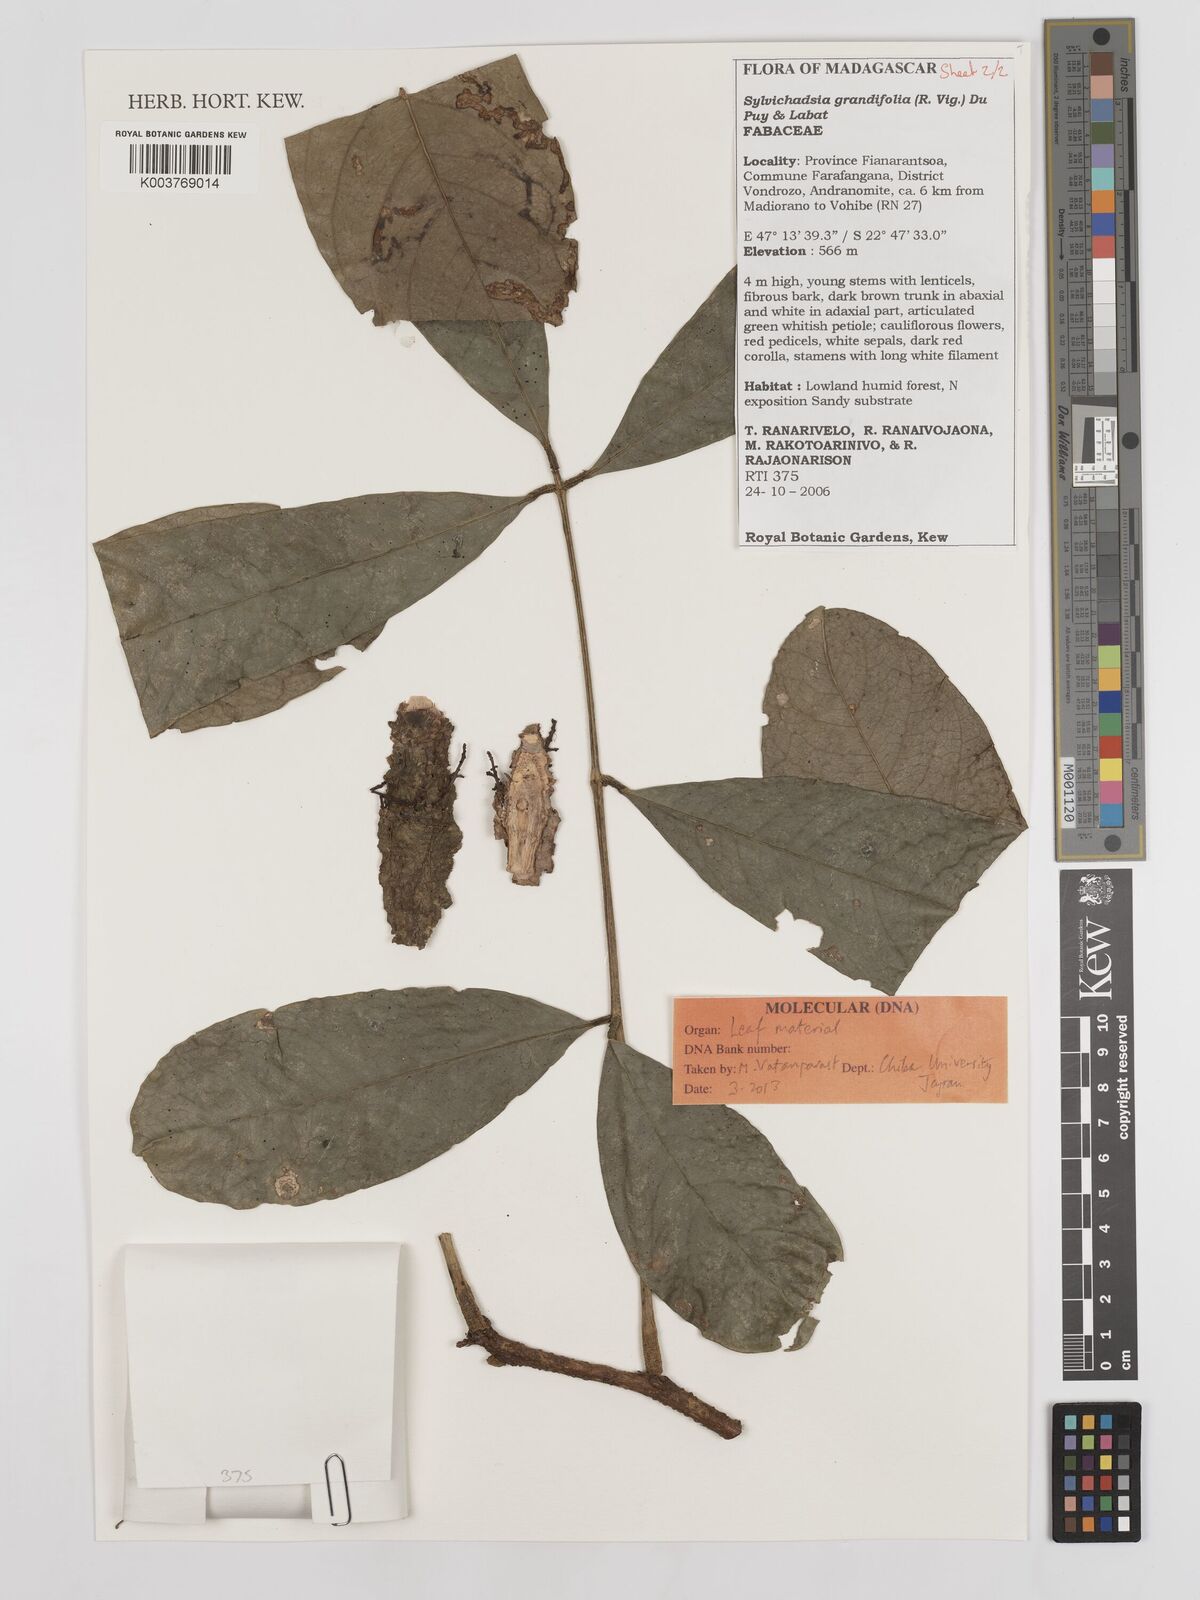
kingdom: Plantae
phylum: Tracheophyta
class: Magnoliopsida
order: Fabales
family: Fabaceae
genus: Sylvichadsia
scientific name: Sylvichadsia grandifolia
